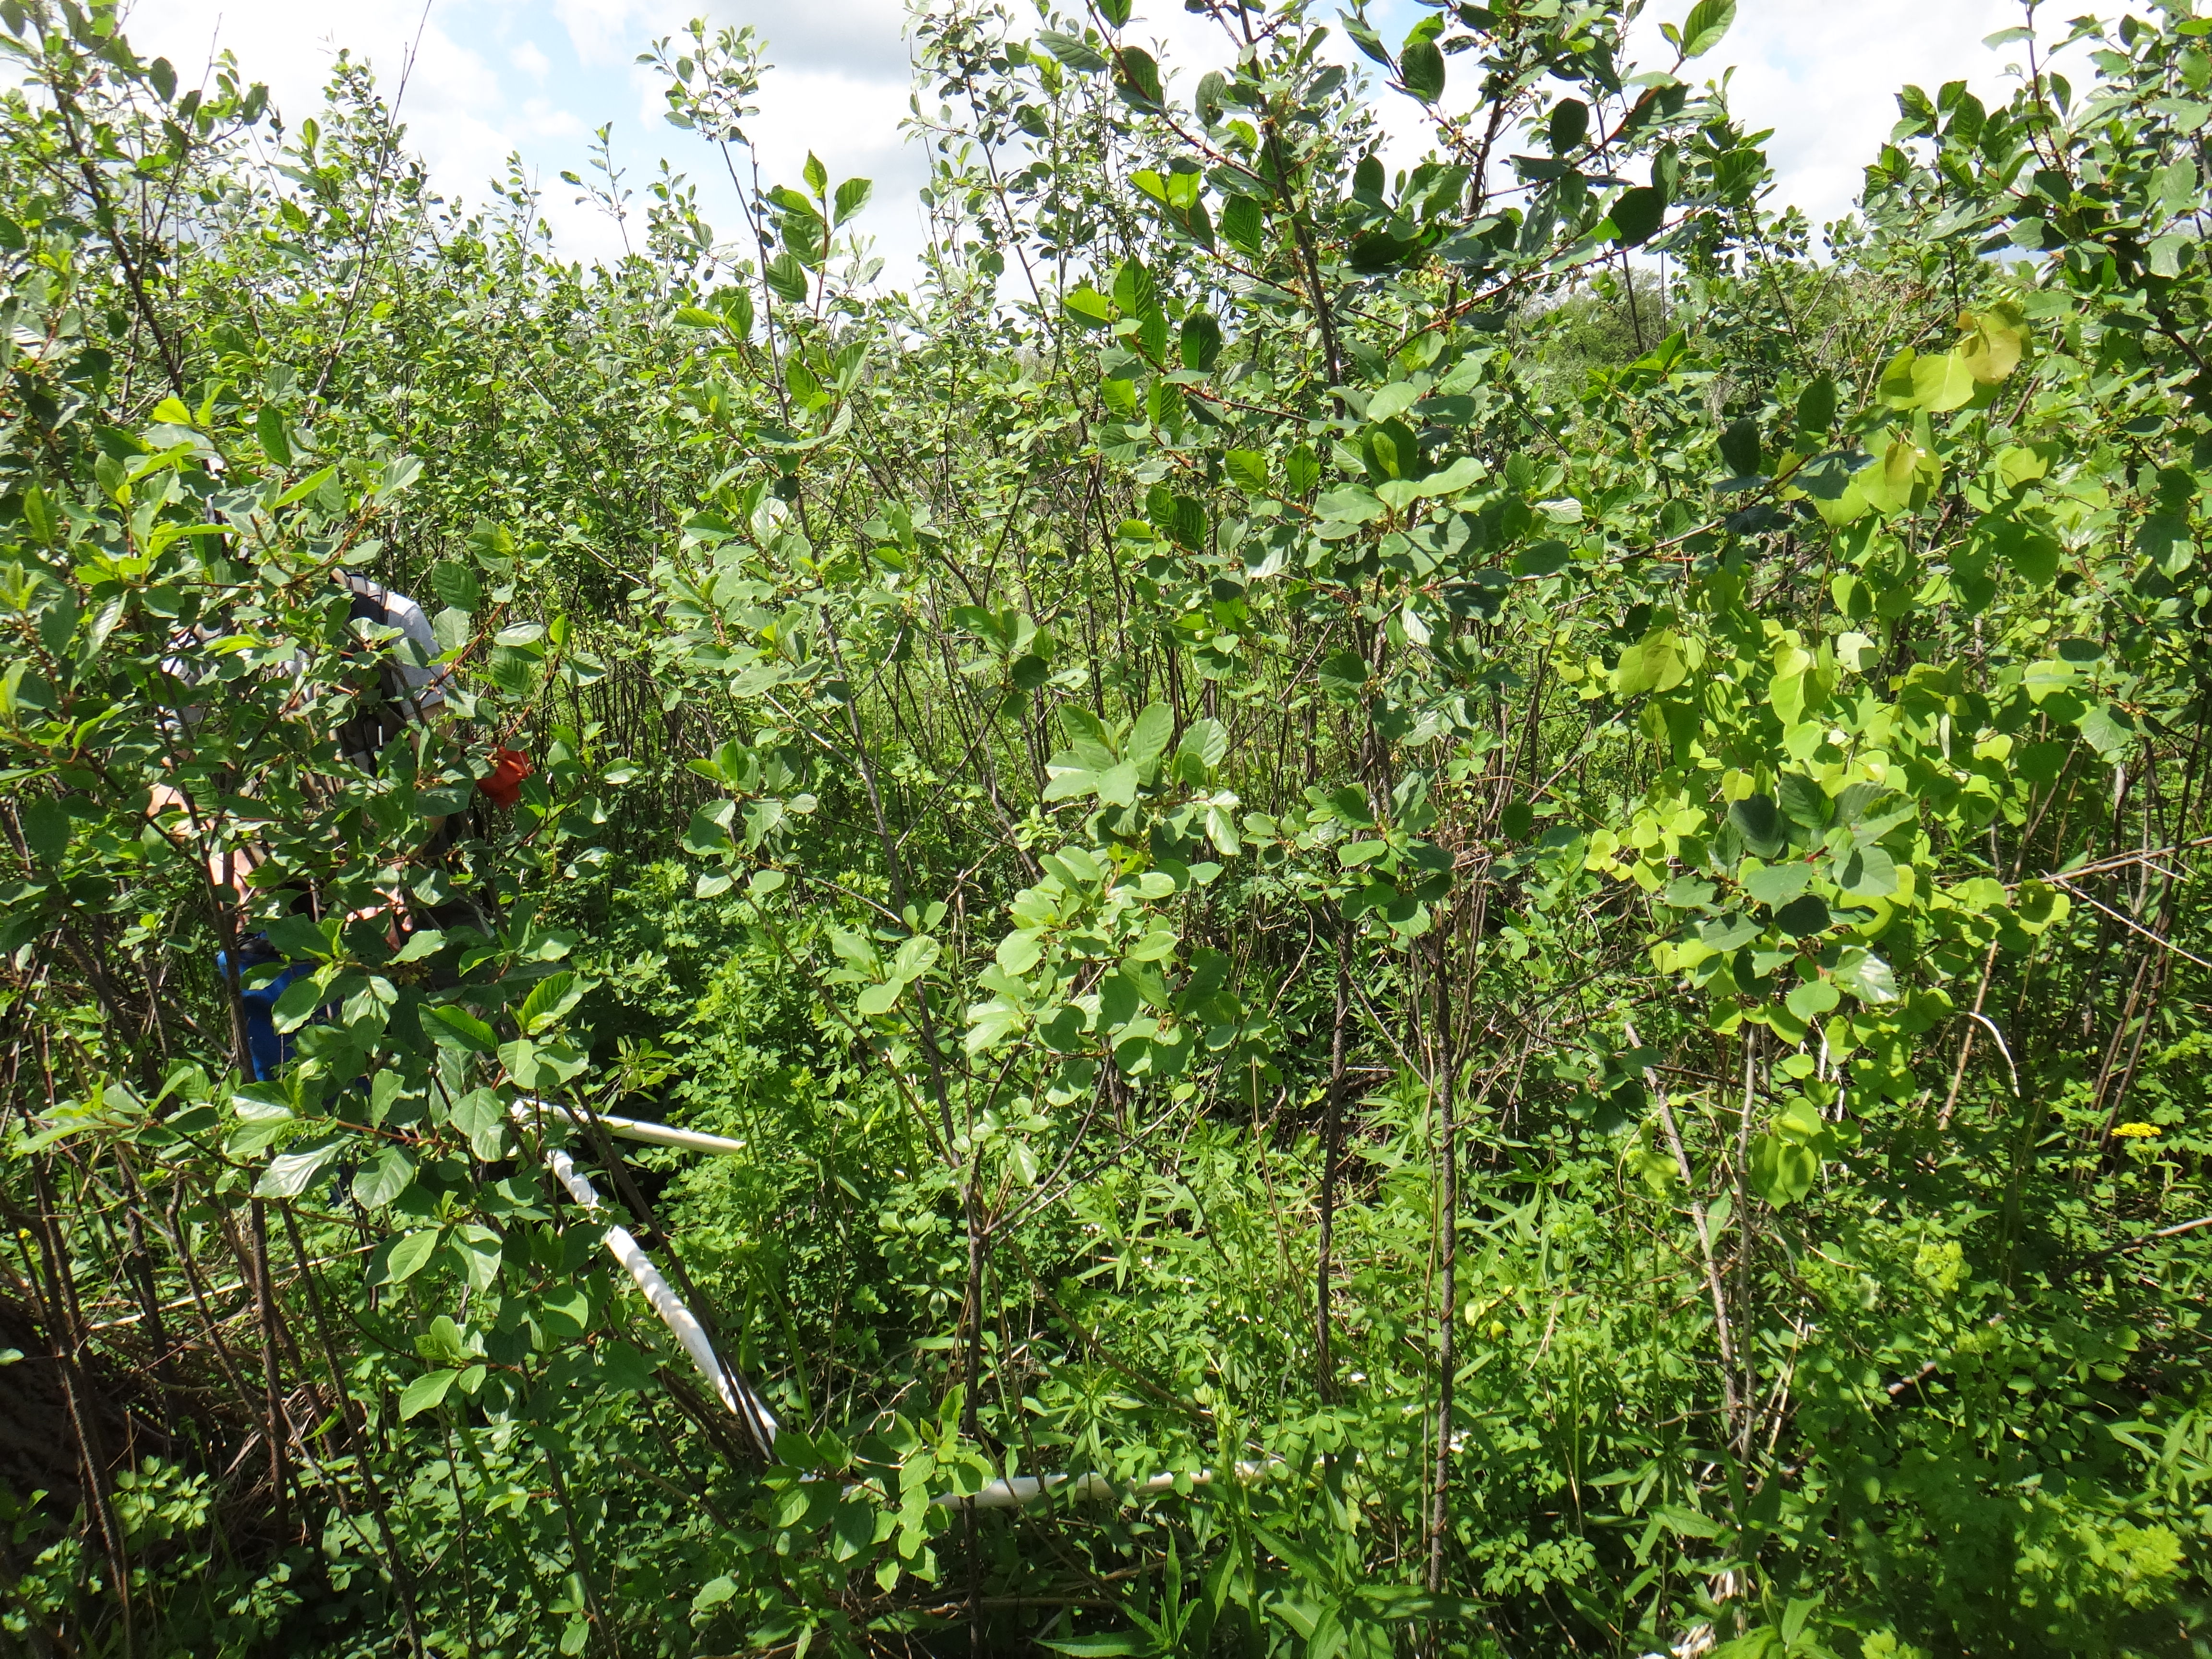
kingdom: Plantae
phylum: Tracheophyta
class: Magnoliopsida
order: Ranunculales
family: Ranunculaceae
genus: Thalictrum
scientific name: Thalictrum dasycarpum
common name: Purple meadow-rue
